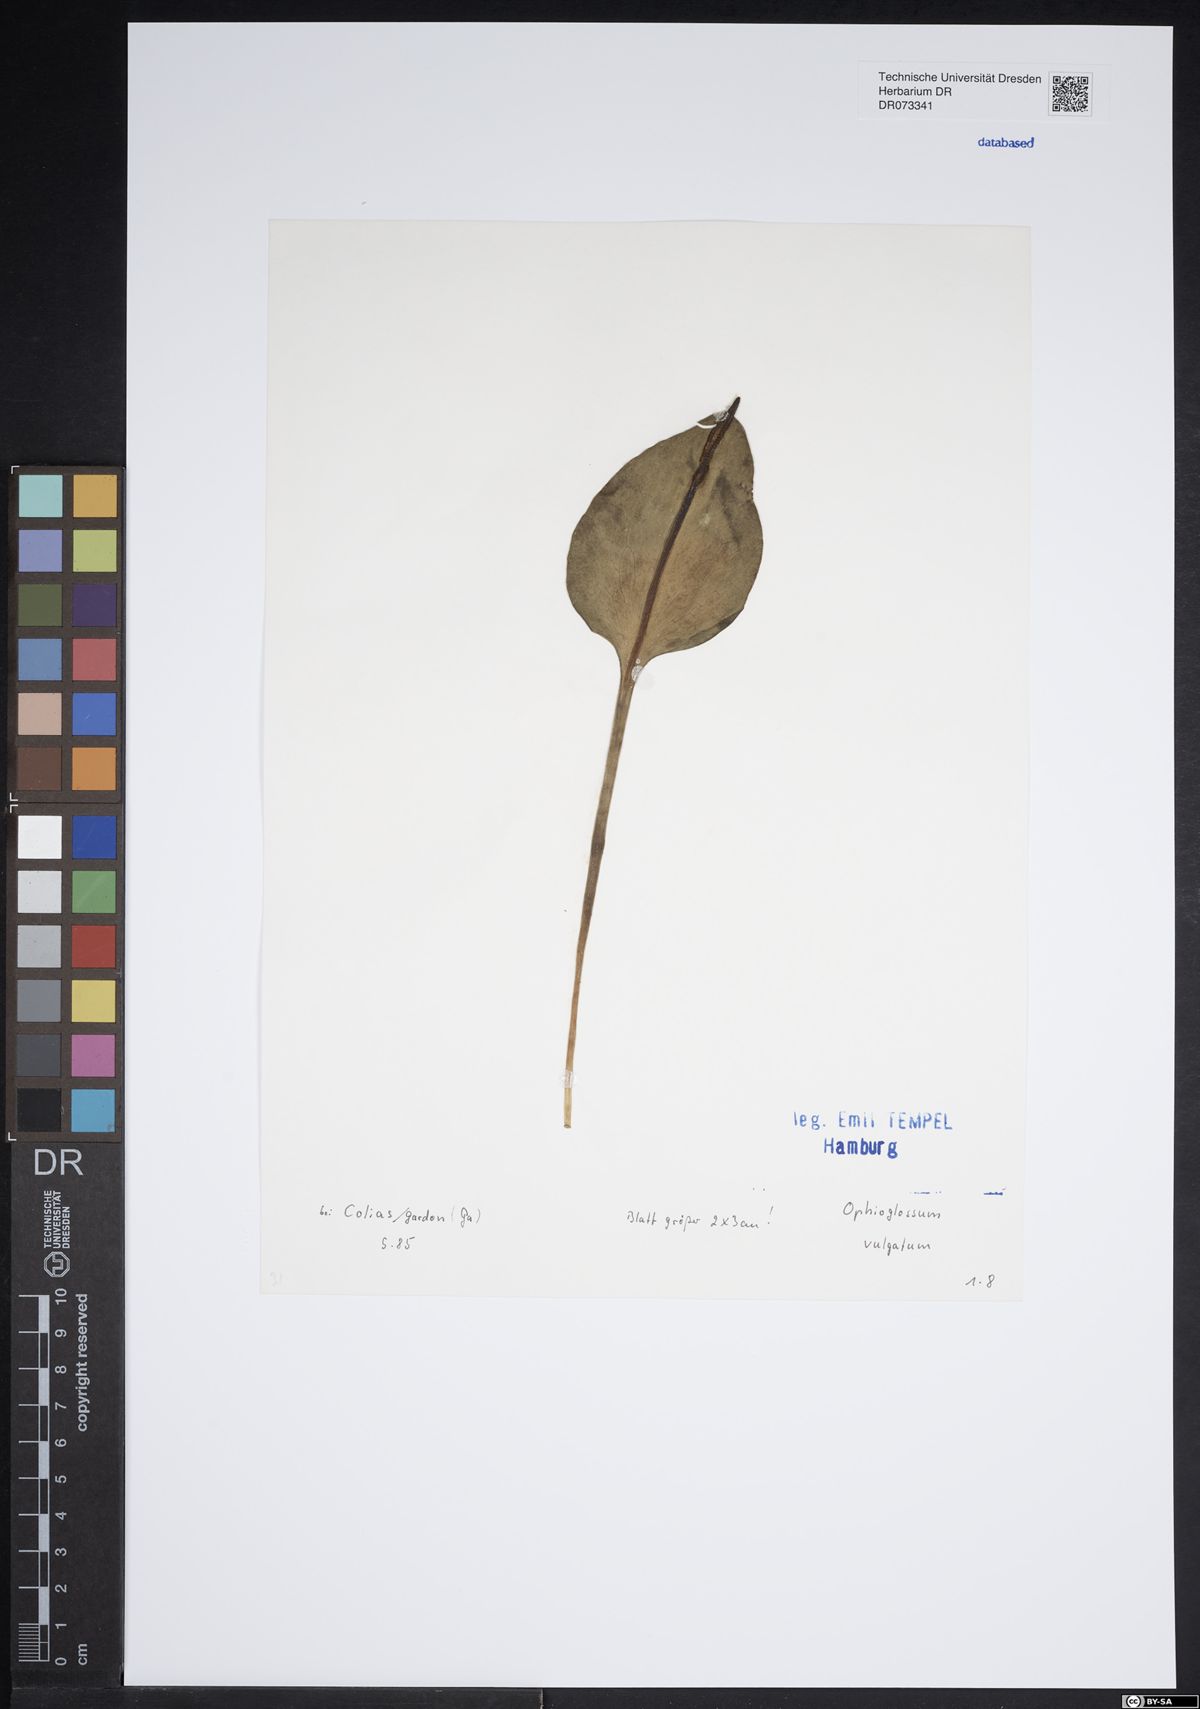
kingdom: Plantae
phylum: Tracheophyta
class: Polypodiopsida
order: Ophioglossales
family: Ophioglossaceae
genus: Ophioglossum
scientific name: Ophioglossum vulgatum
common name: Adder's-tongue
